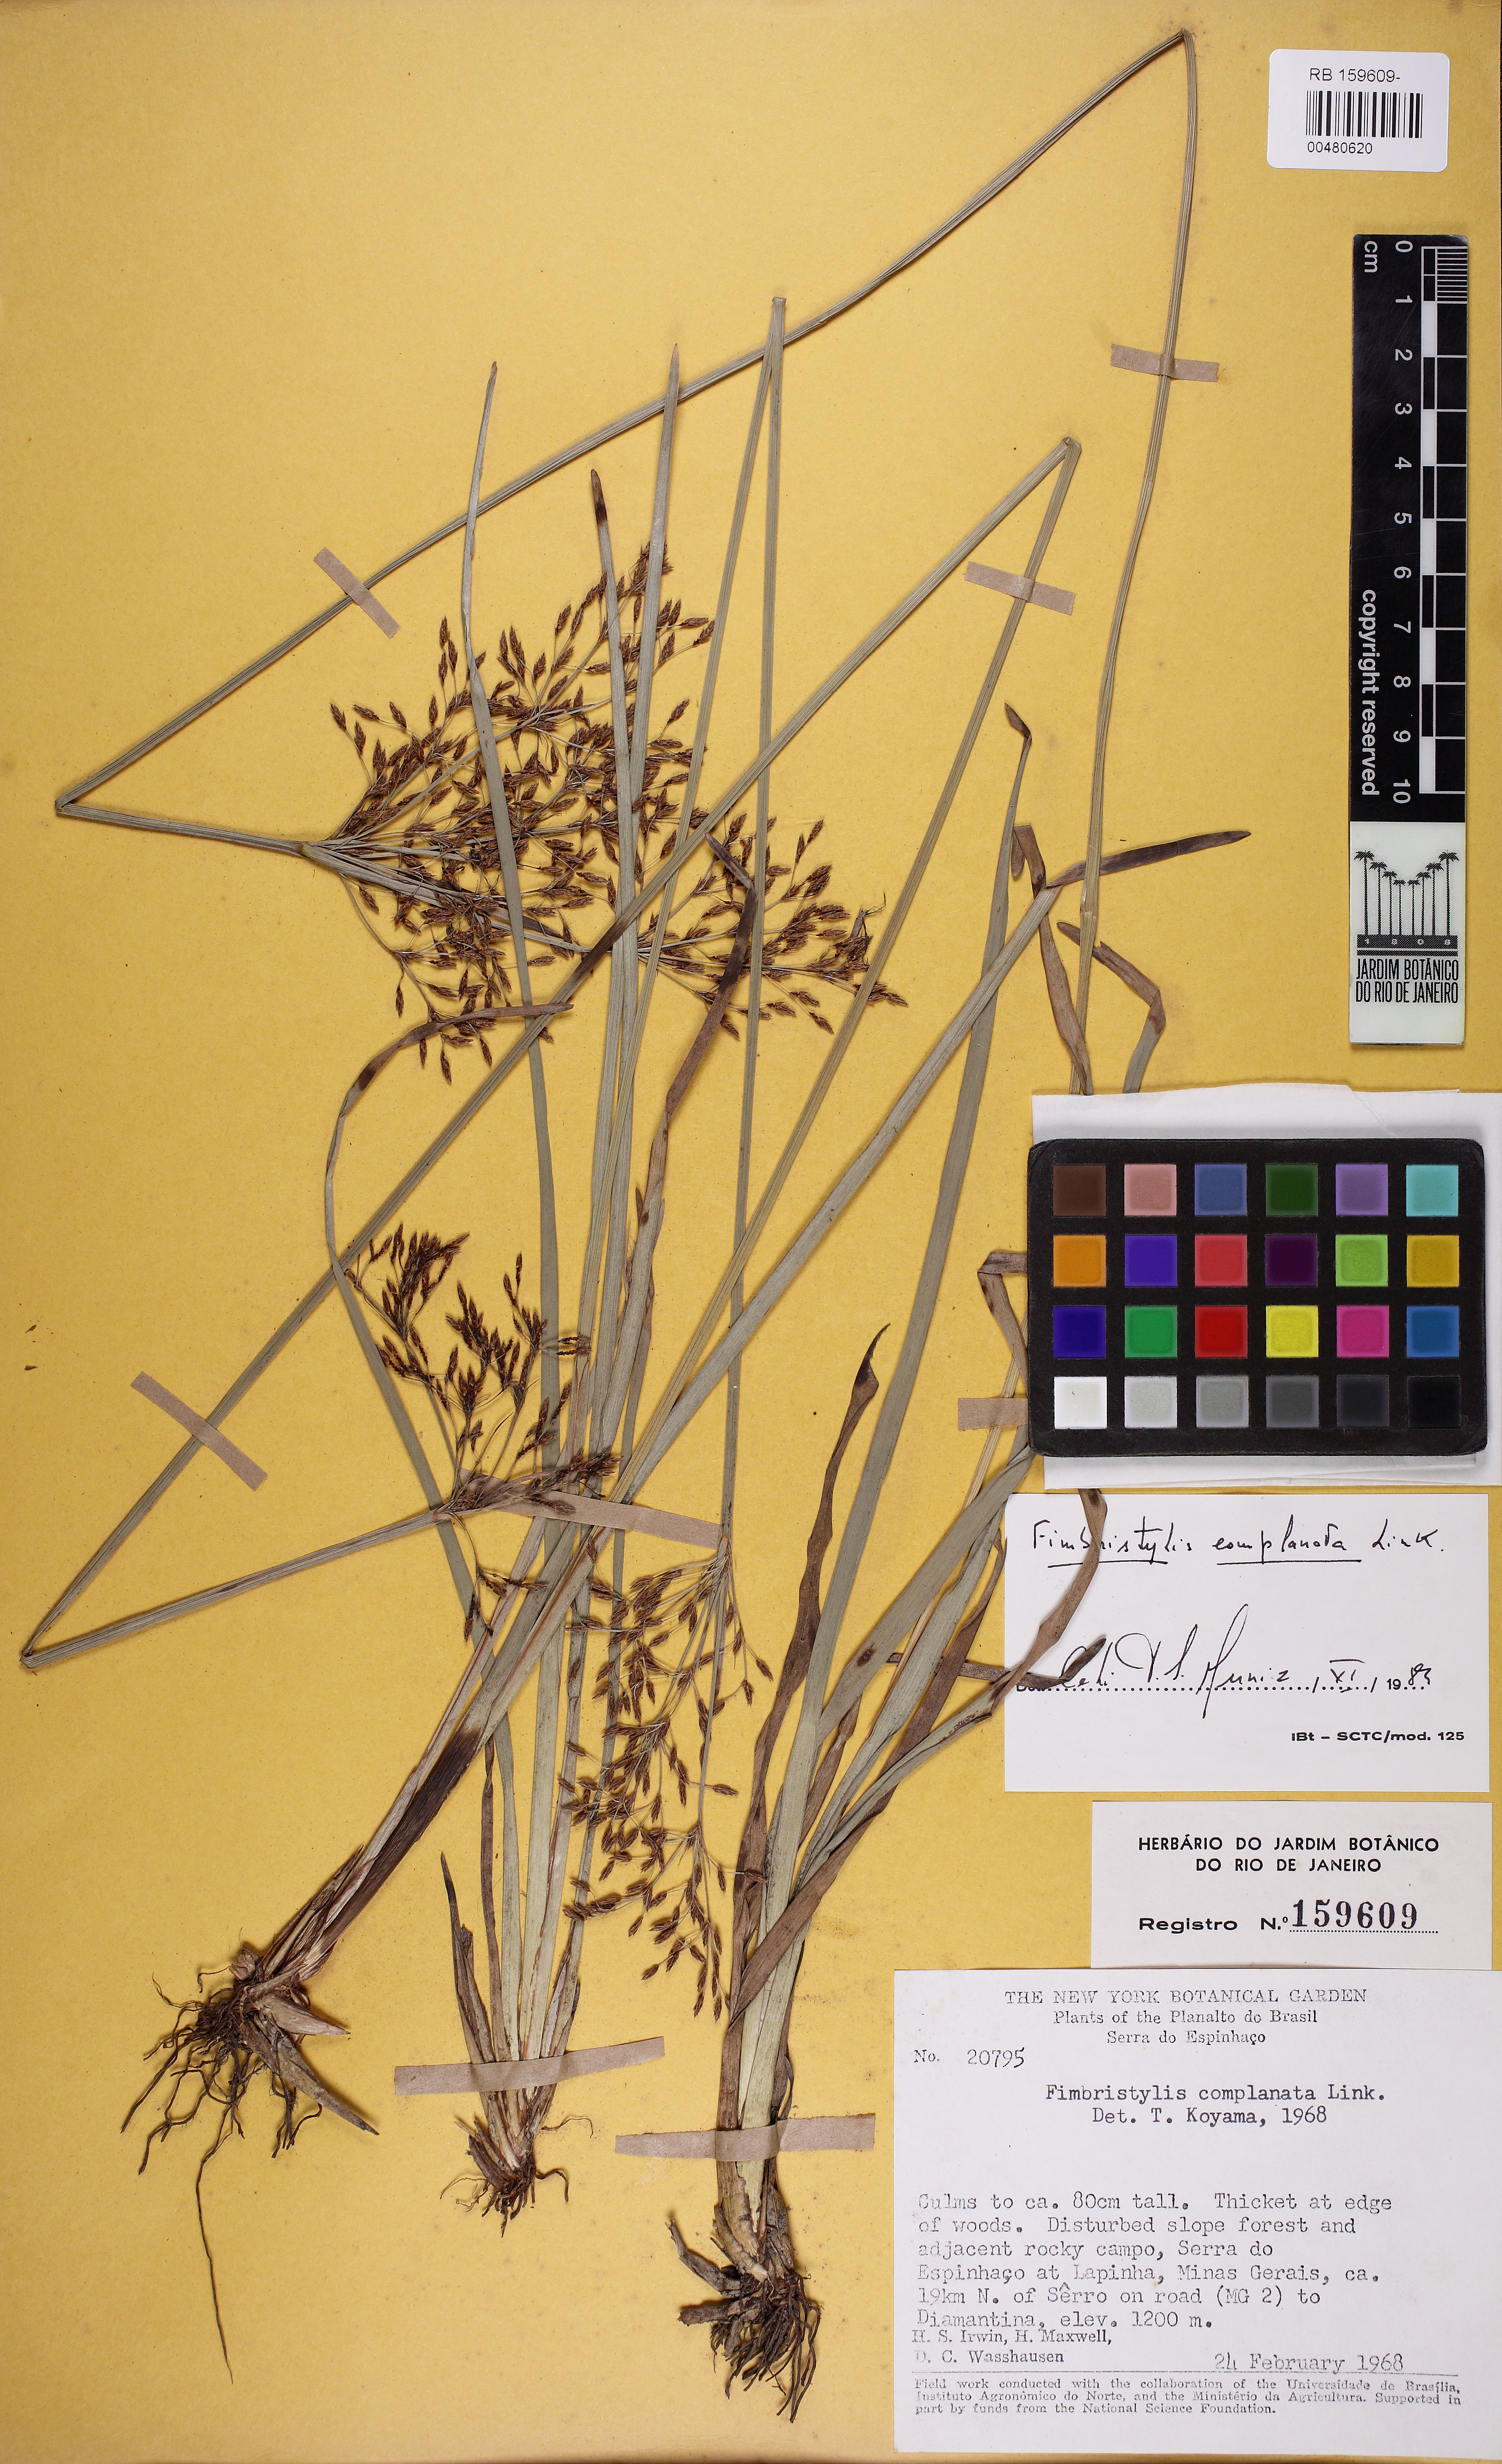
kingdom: Plantae
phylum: Tracheophyta
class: Liliopsida
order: Poales
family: Cyperaceae
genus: Fimbristylis
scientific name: Fimbristylis complanata
